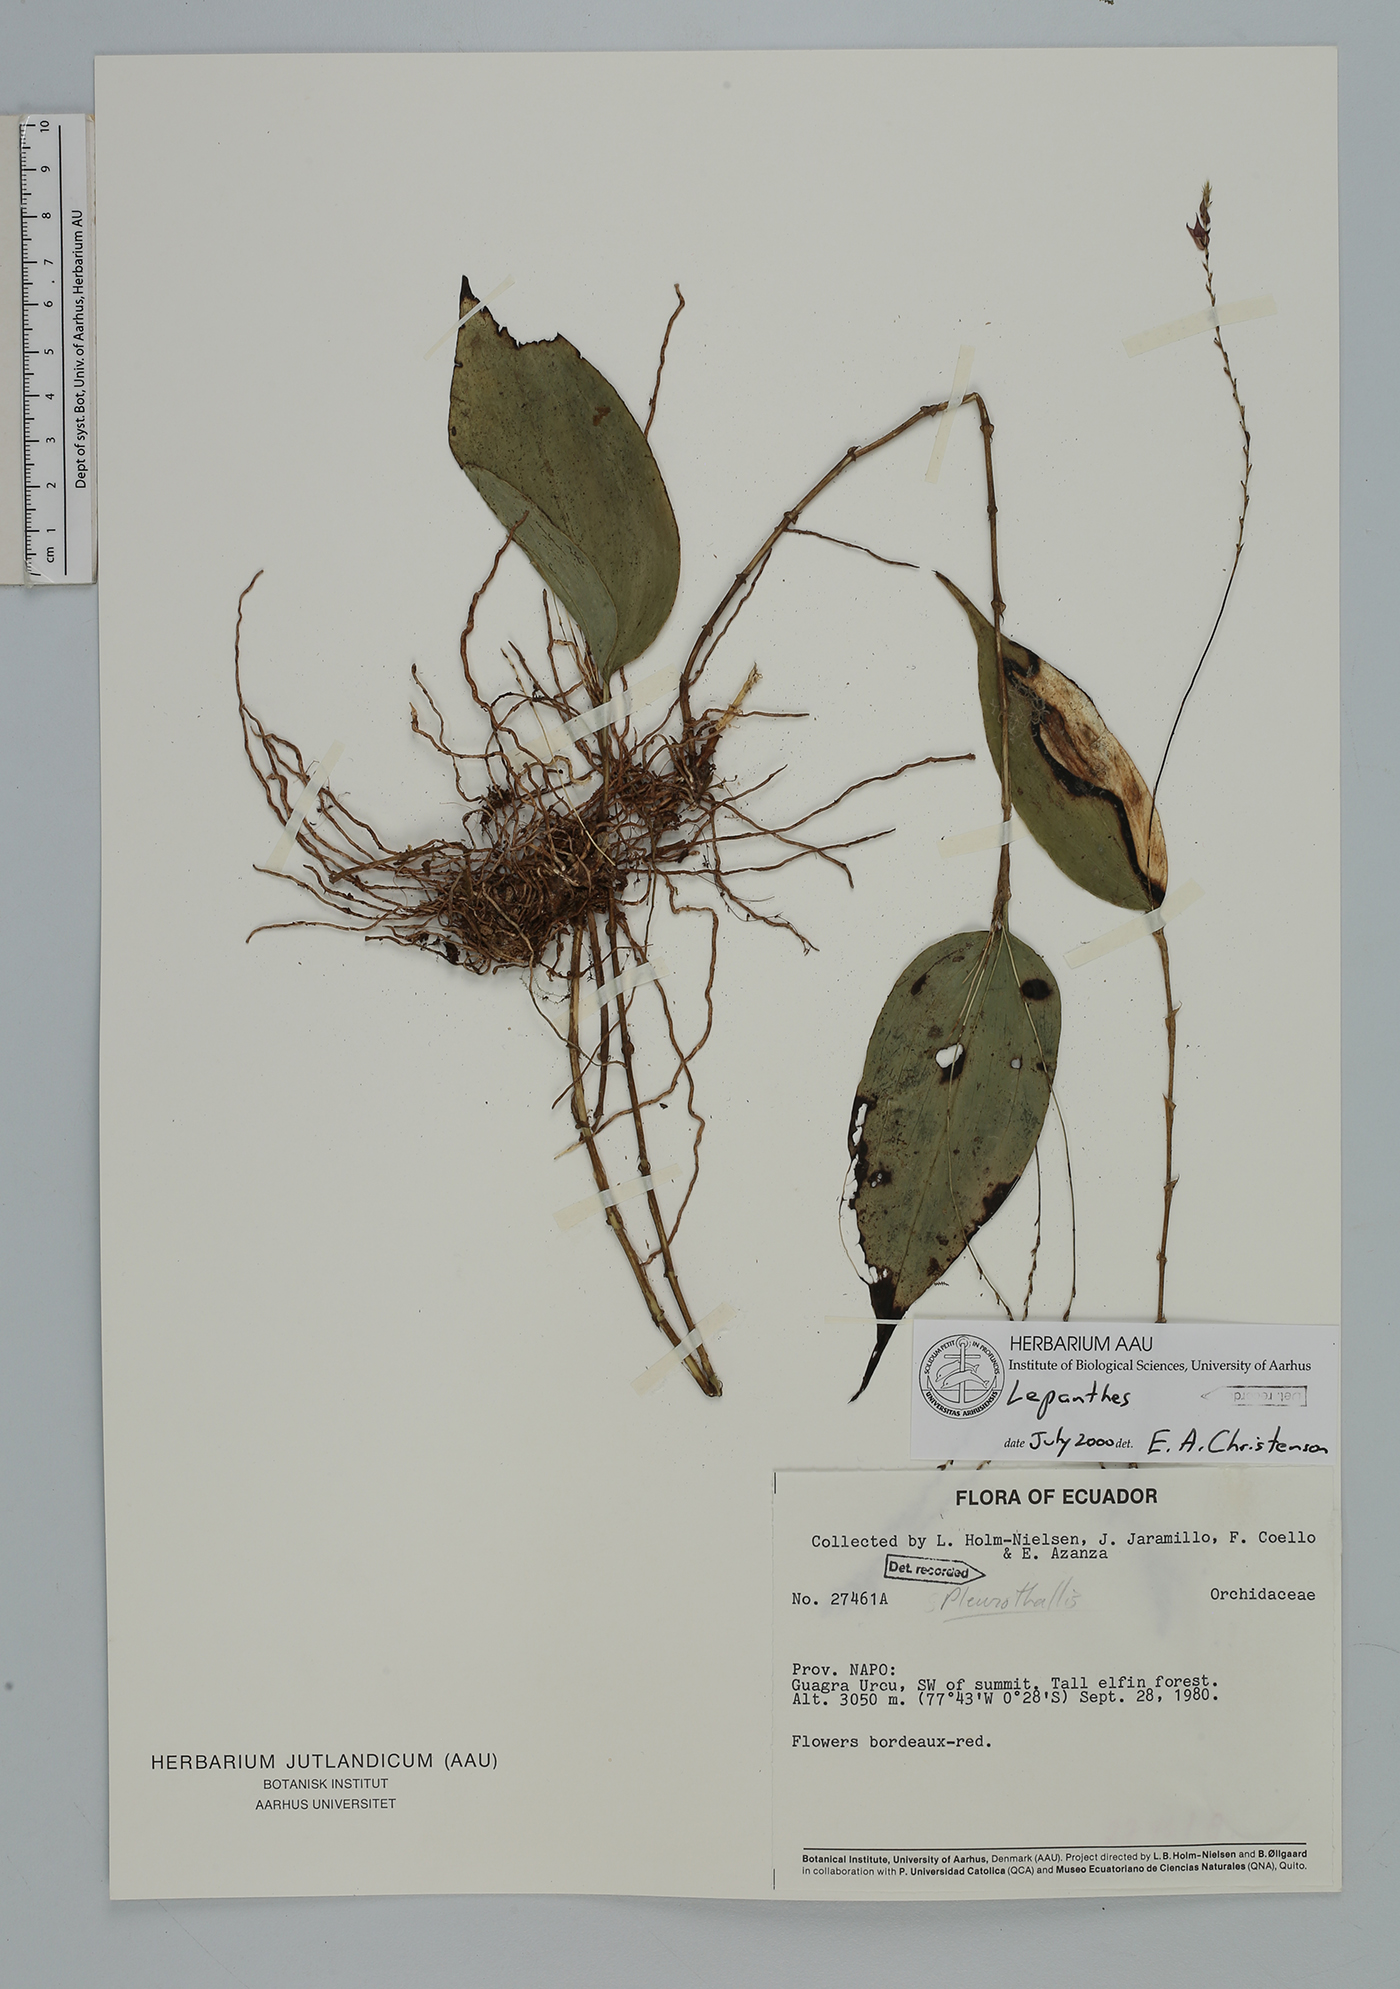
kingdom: Plantae
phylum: Tracheophyta
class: Liliopsida
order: Asparagales
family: Orchidaceae
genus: Lepanthes
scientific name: Lepanthes
